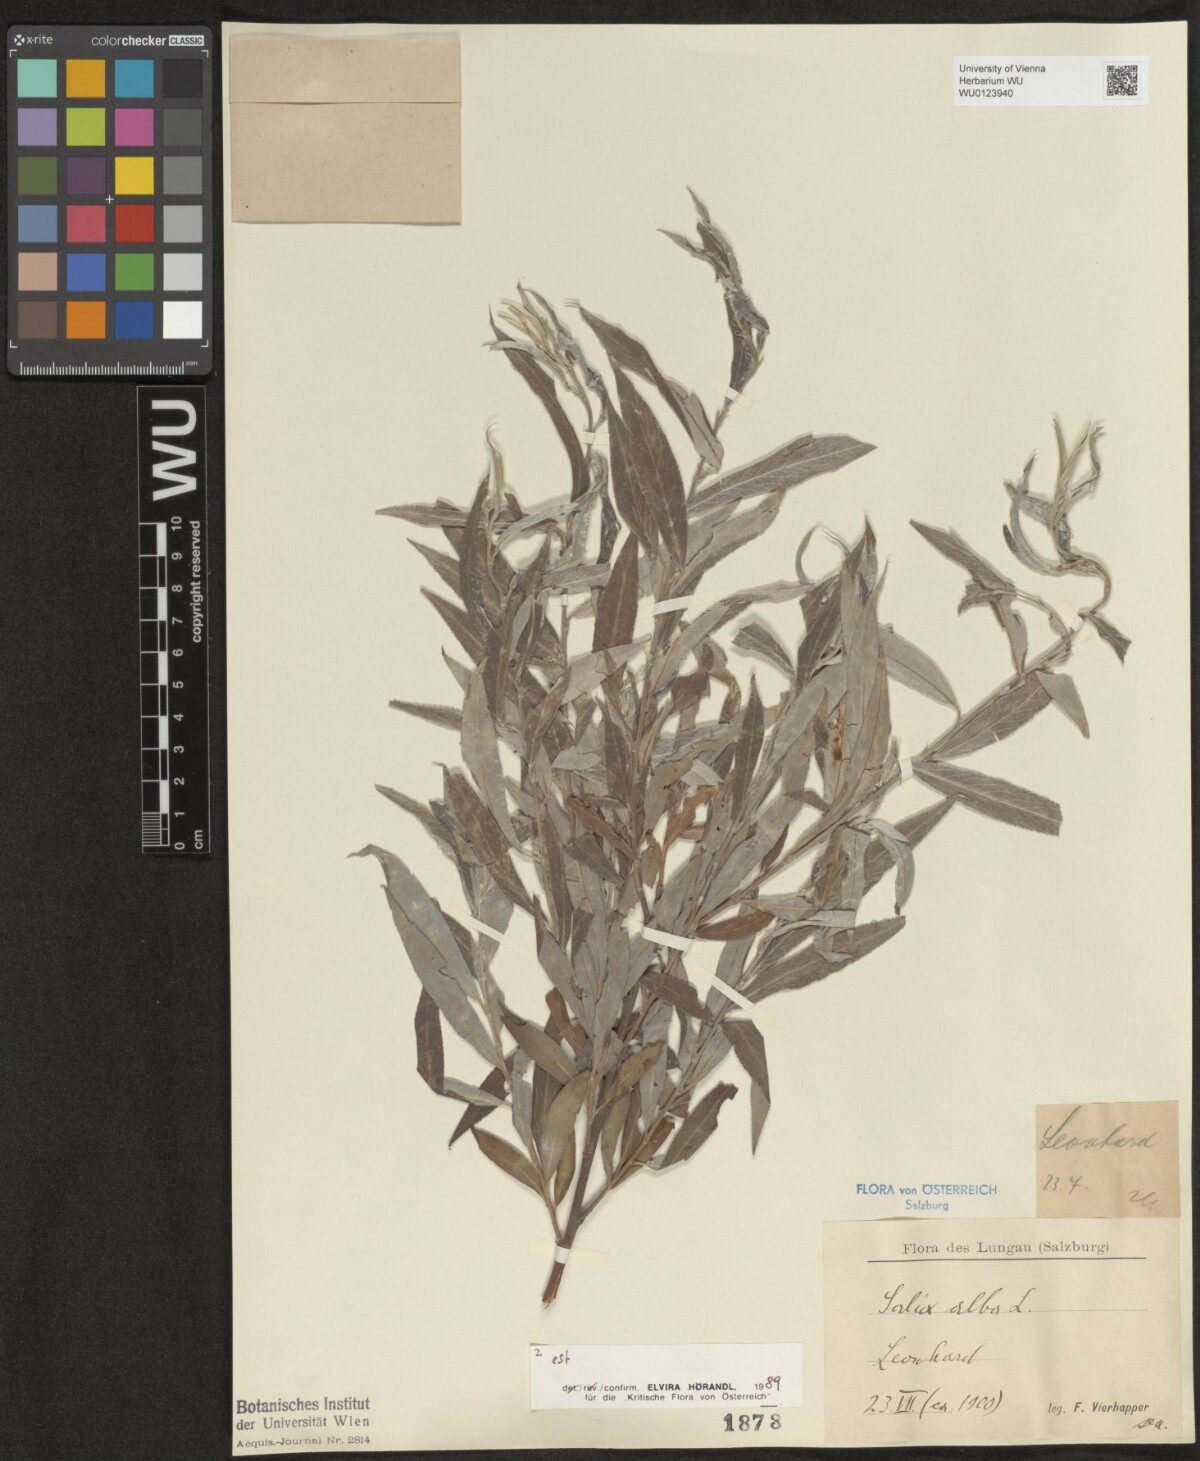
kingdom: Plantae
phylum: Tracheophyta
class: Magnoliopsida
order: Malpighiales
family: Salicaceae
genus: Salix
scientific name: Salix alba
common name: White willow
